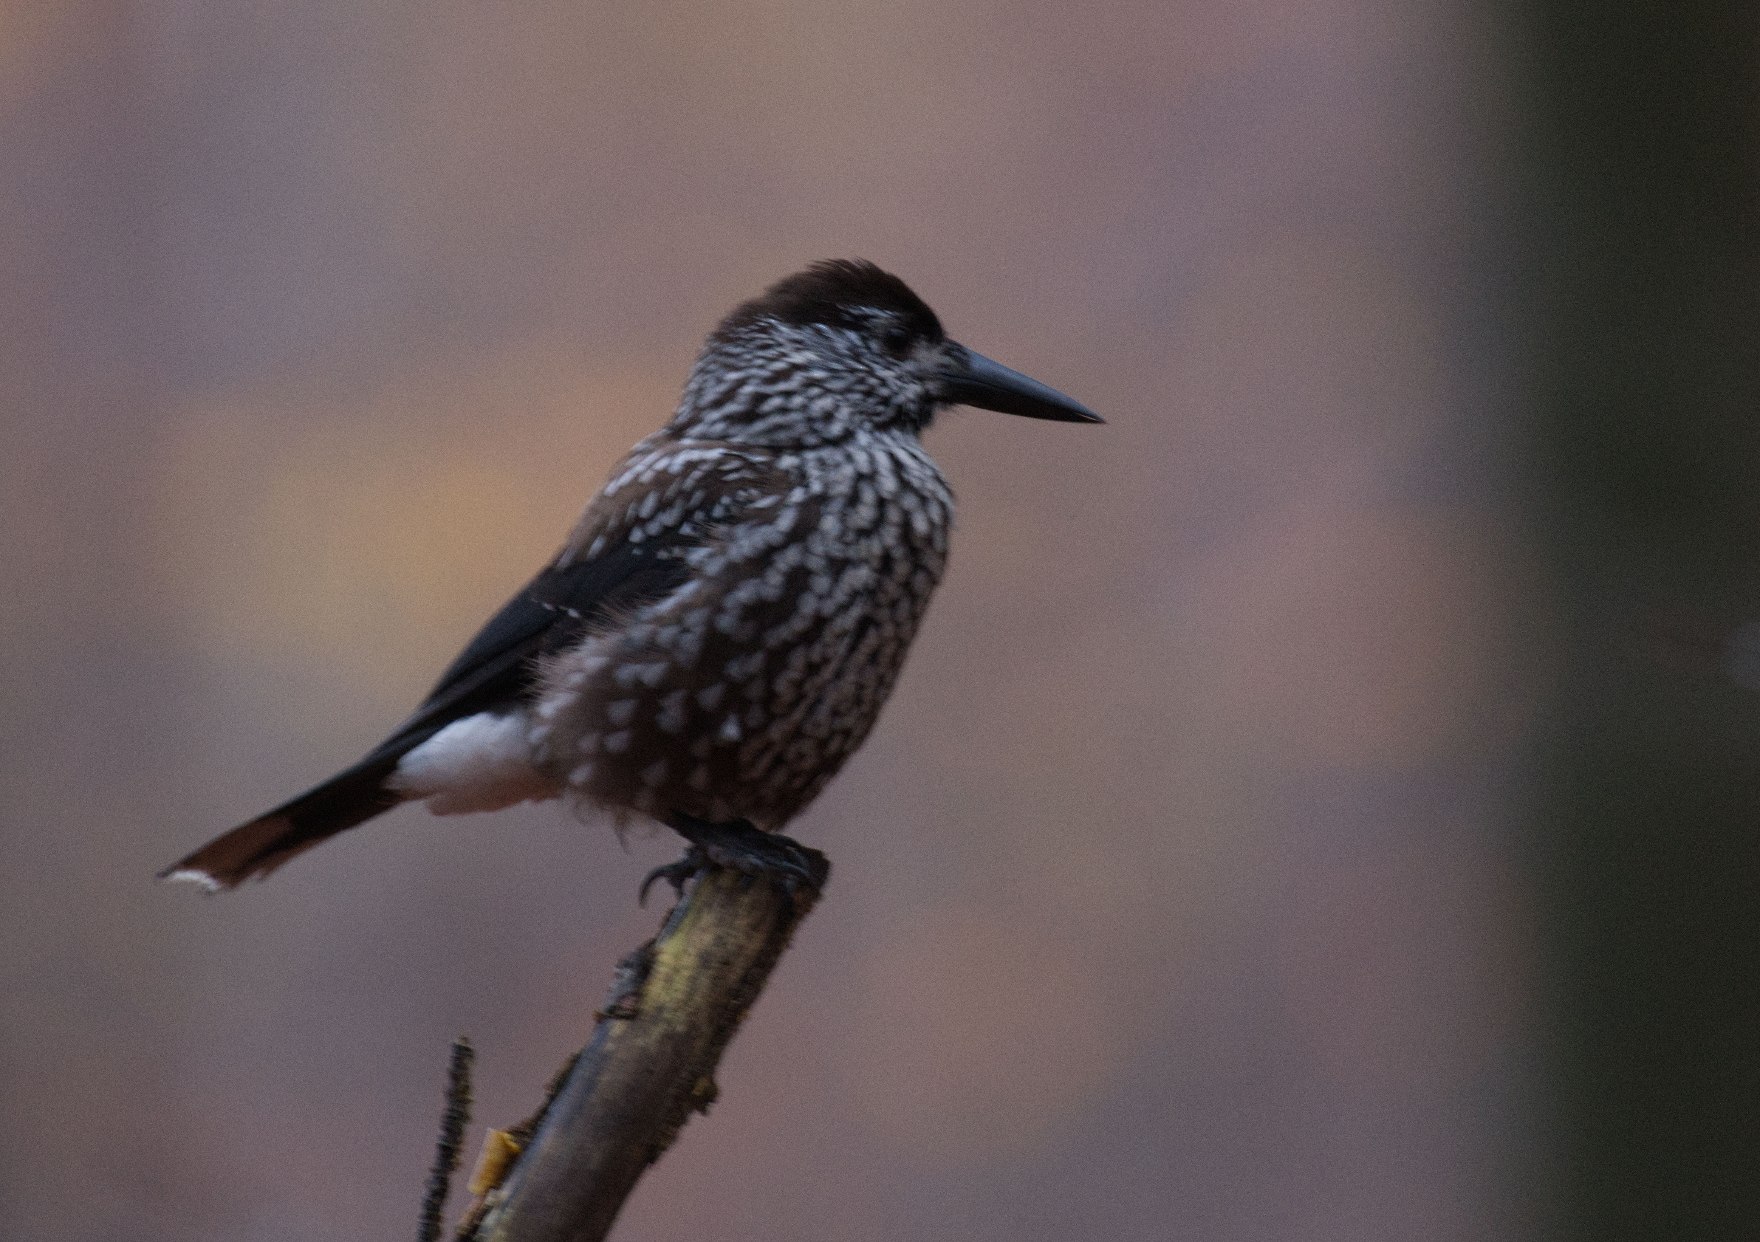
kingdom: Animalia
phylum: Chordata
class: Aves
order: Passeriformes
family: Corvidae
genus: Nucifraga
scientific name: Nucifraga caryocatactes
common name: Nøddekrige
